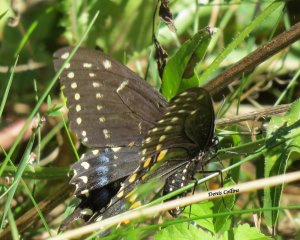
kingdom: Animalia
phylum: Arthropoda
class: Insecta
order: Lepidoptera
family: Papilionidae
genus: Papilio
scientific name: Papilio polyxenes
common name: Black Swallowtail
